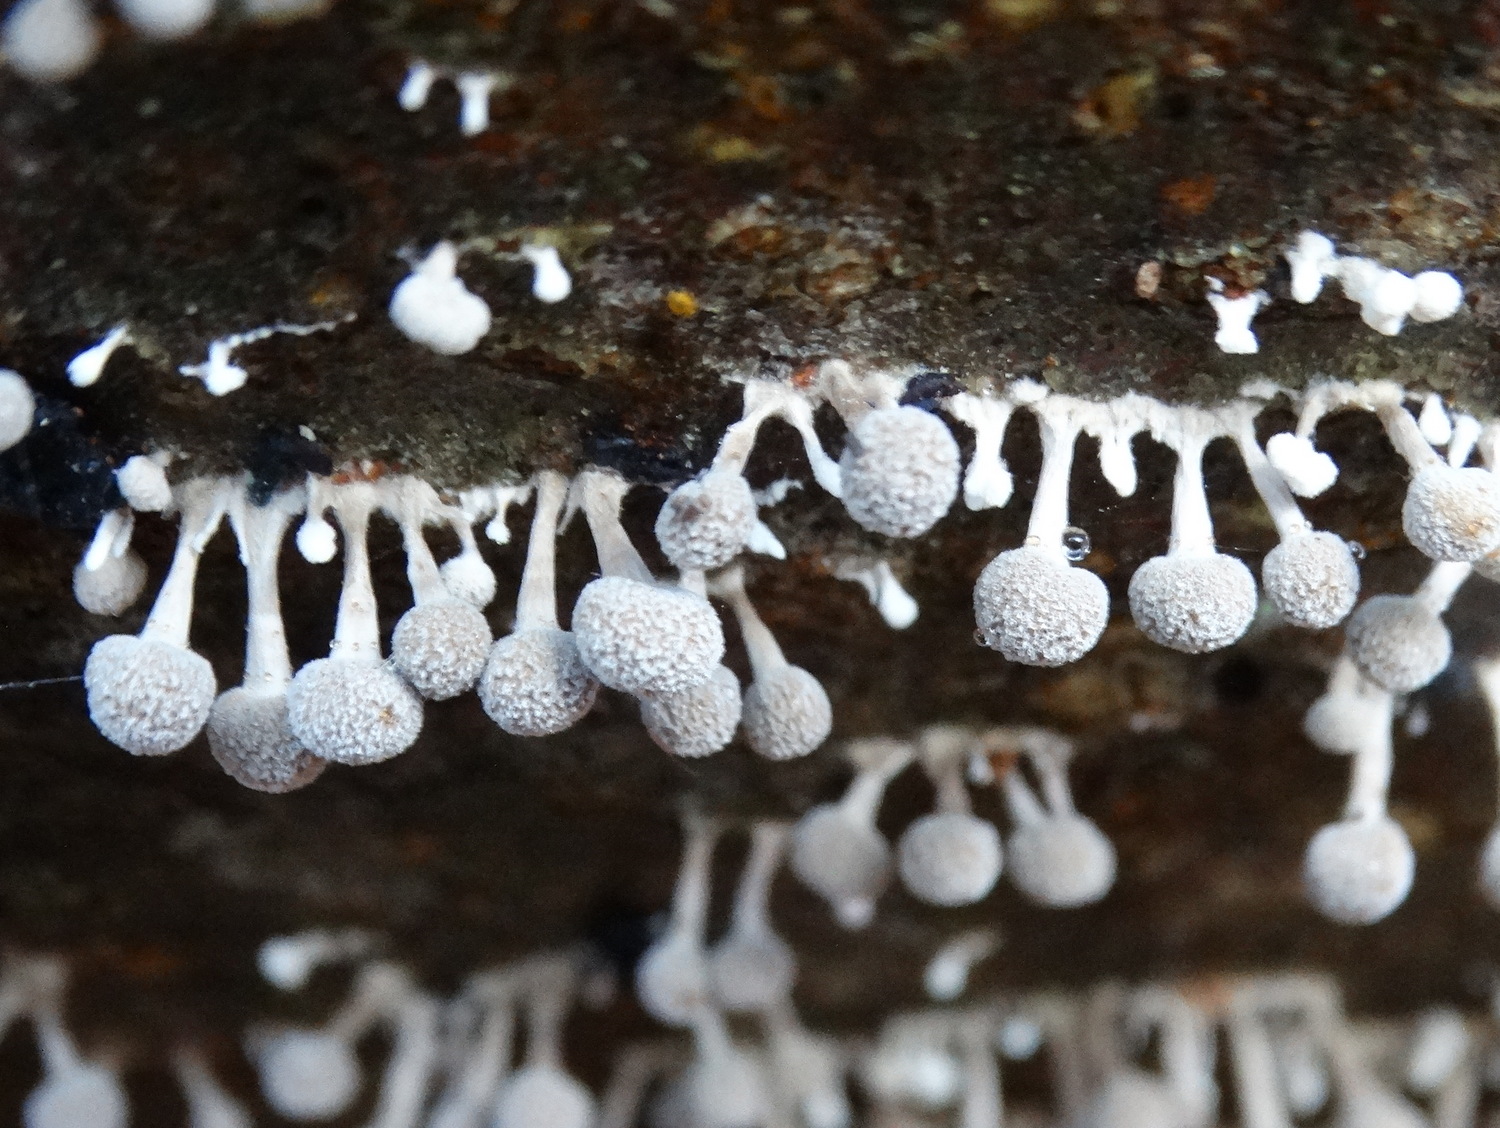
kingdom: Fungi
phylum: Basidiomycota
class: Atractiellomycetes
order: Atractiellales
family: Phleogenaceae
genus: Phleogena
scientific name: Phleogena faginea
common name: pudderkølle
